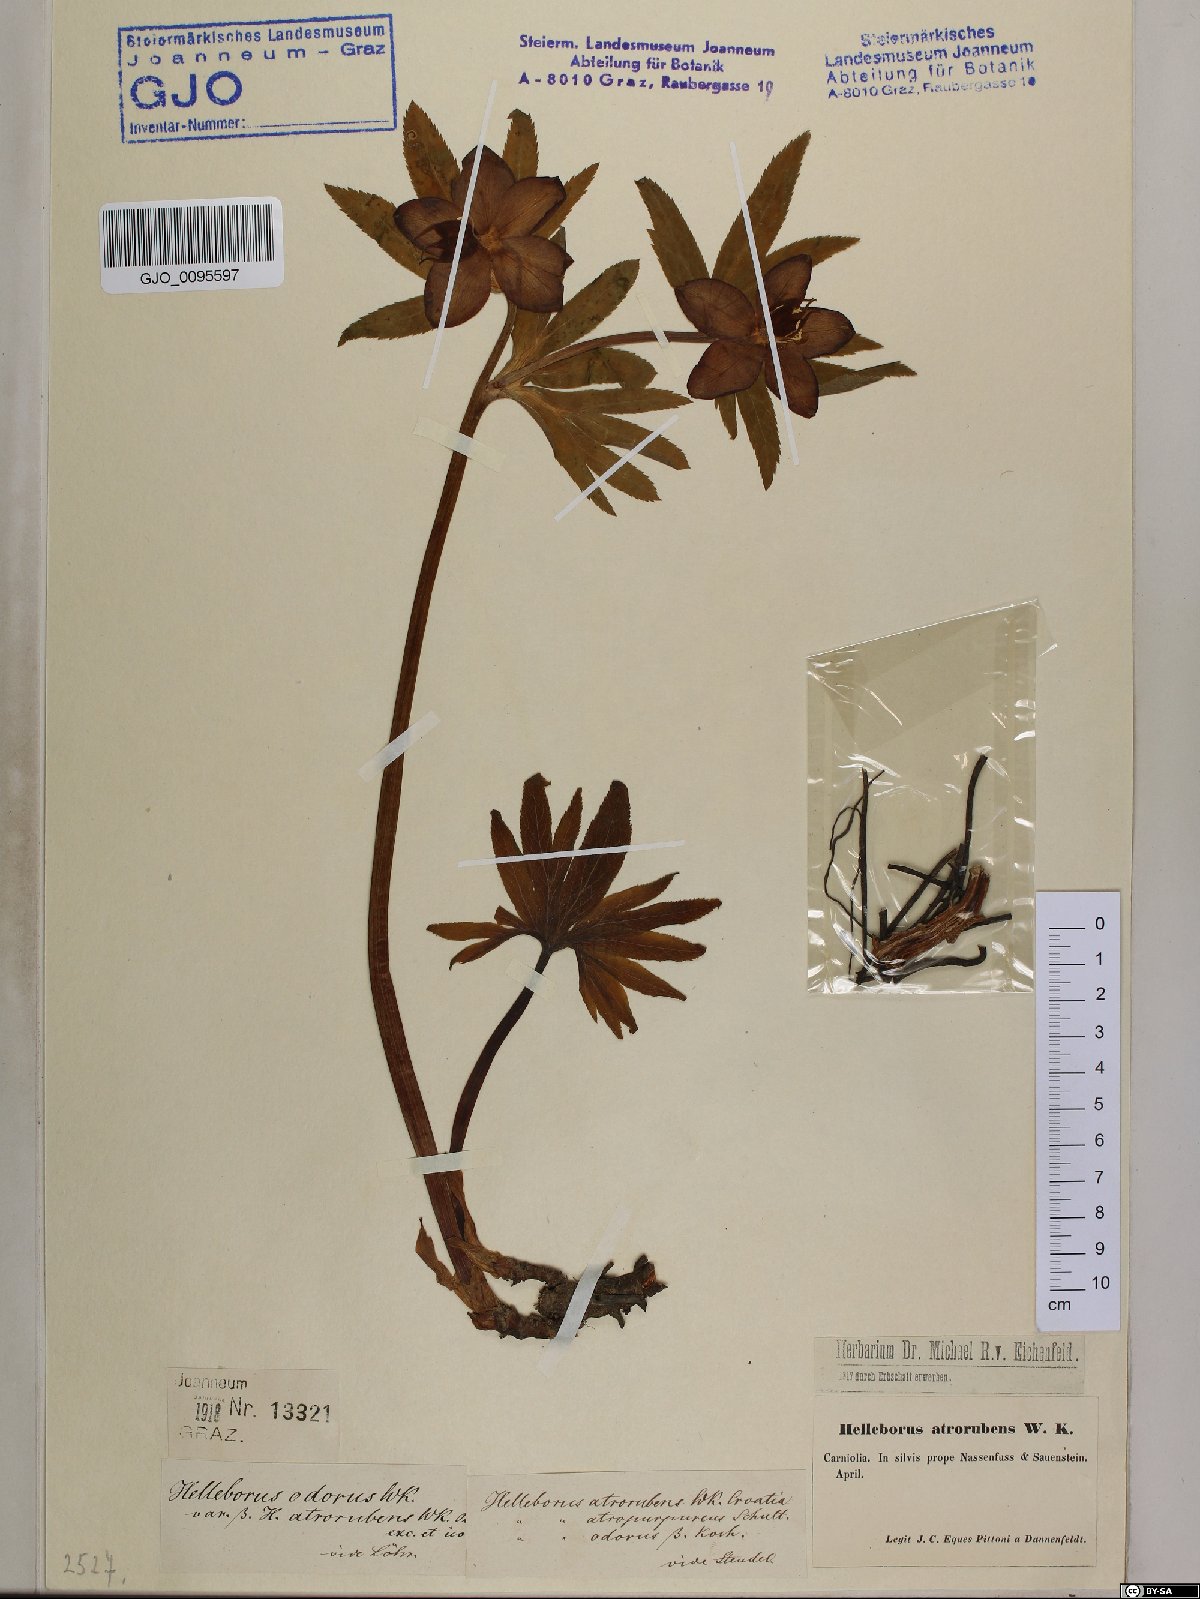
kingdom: Plantae
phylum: Tracheophyta
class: Magnoliopsida
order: Ranunculales
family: Ranunculaceae
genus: Helleborus
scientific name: Helleborus dumetorum
